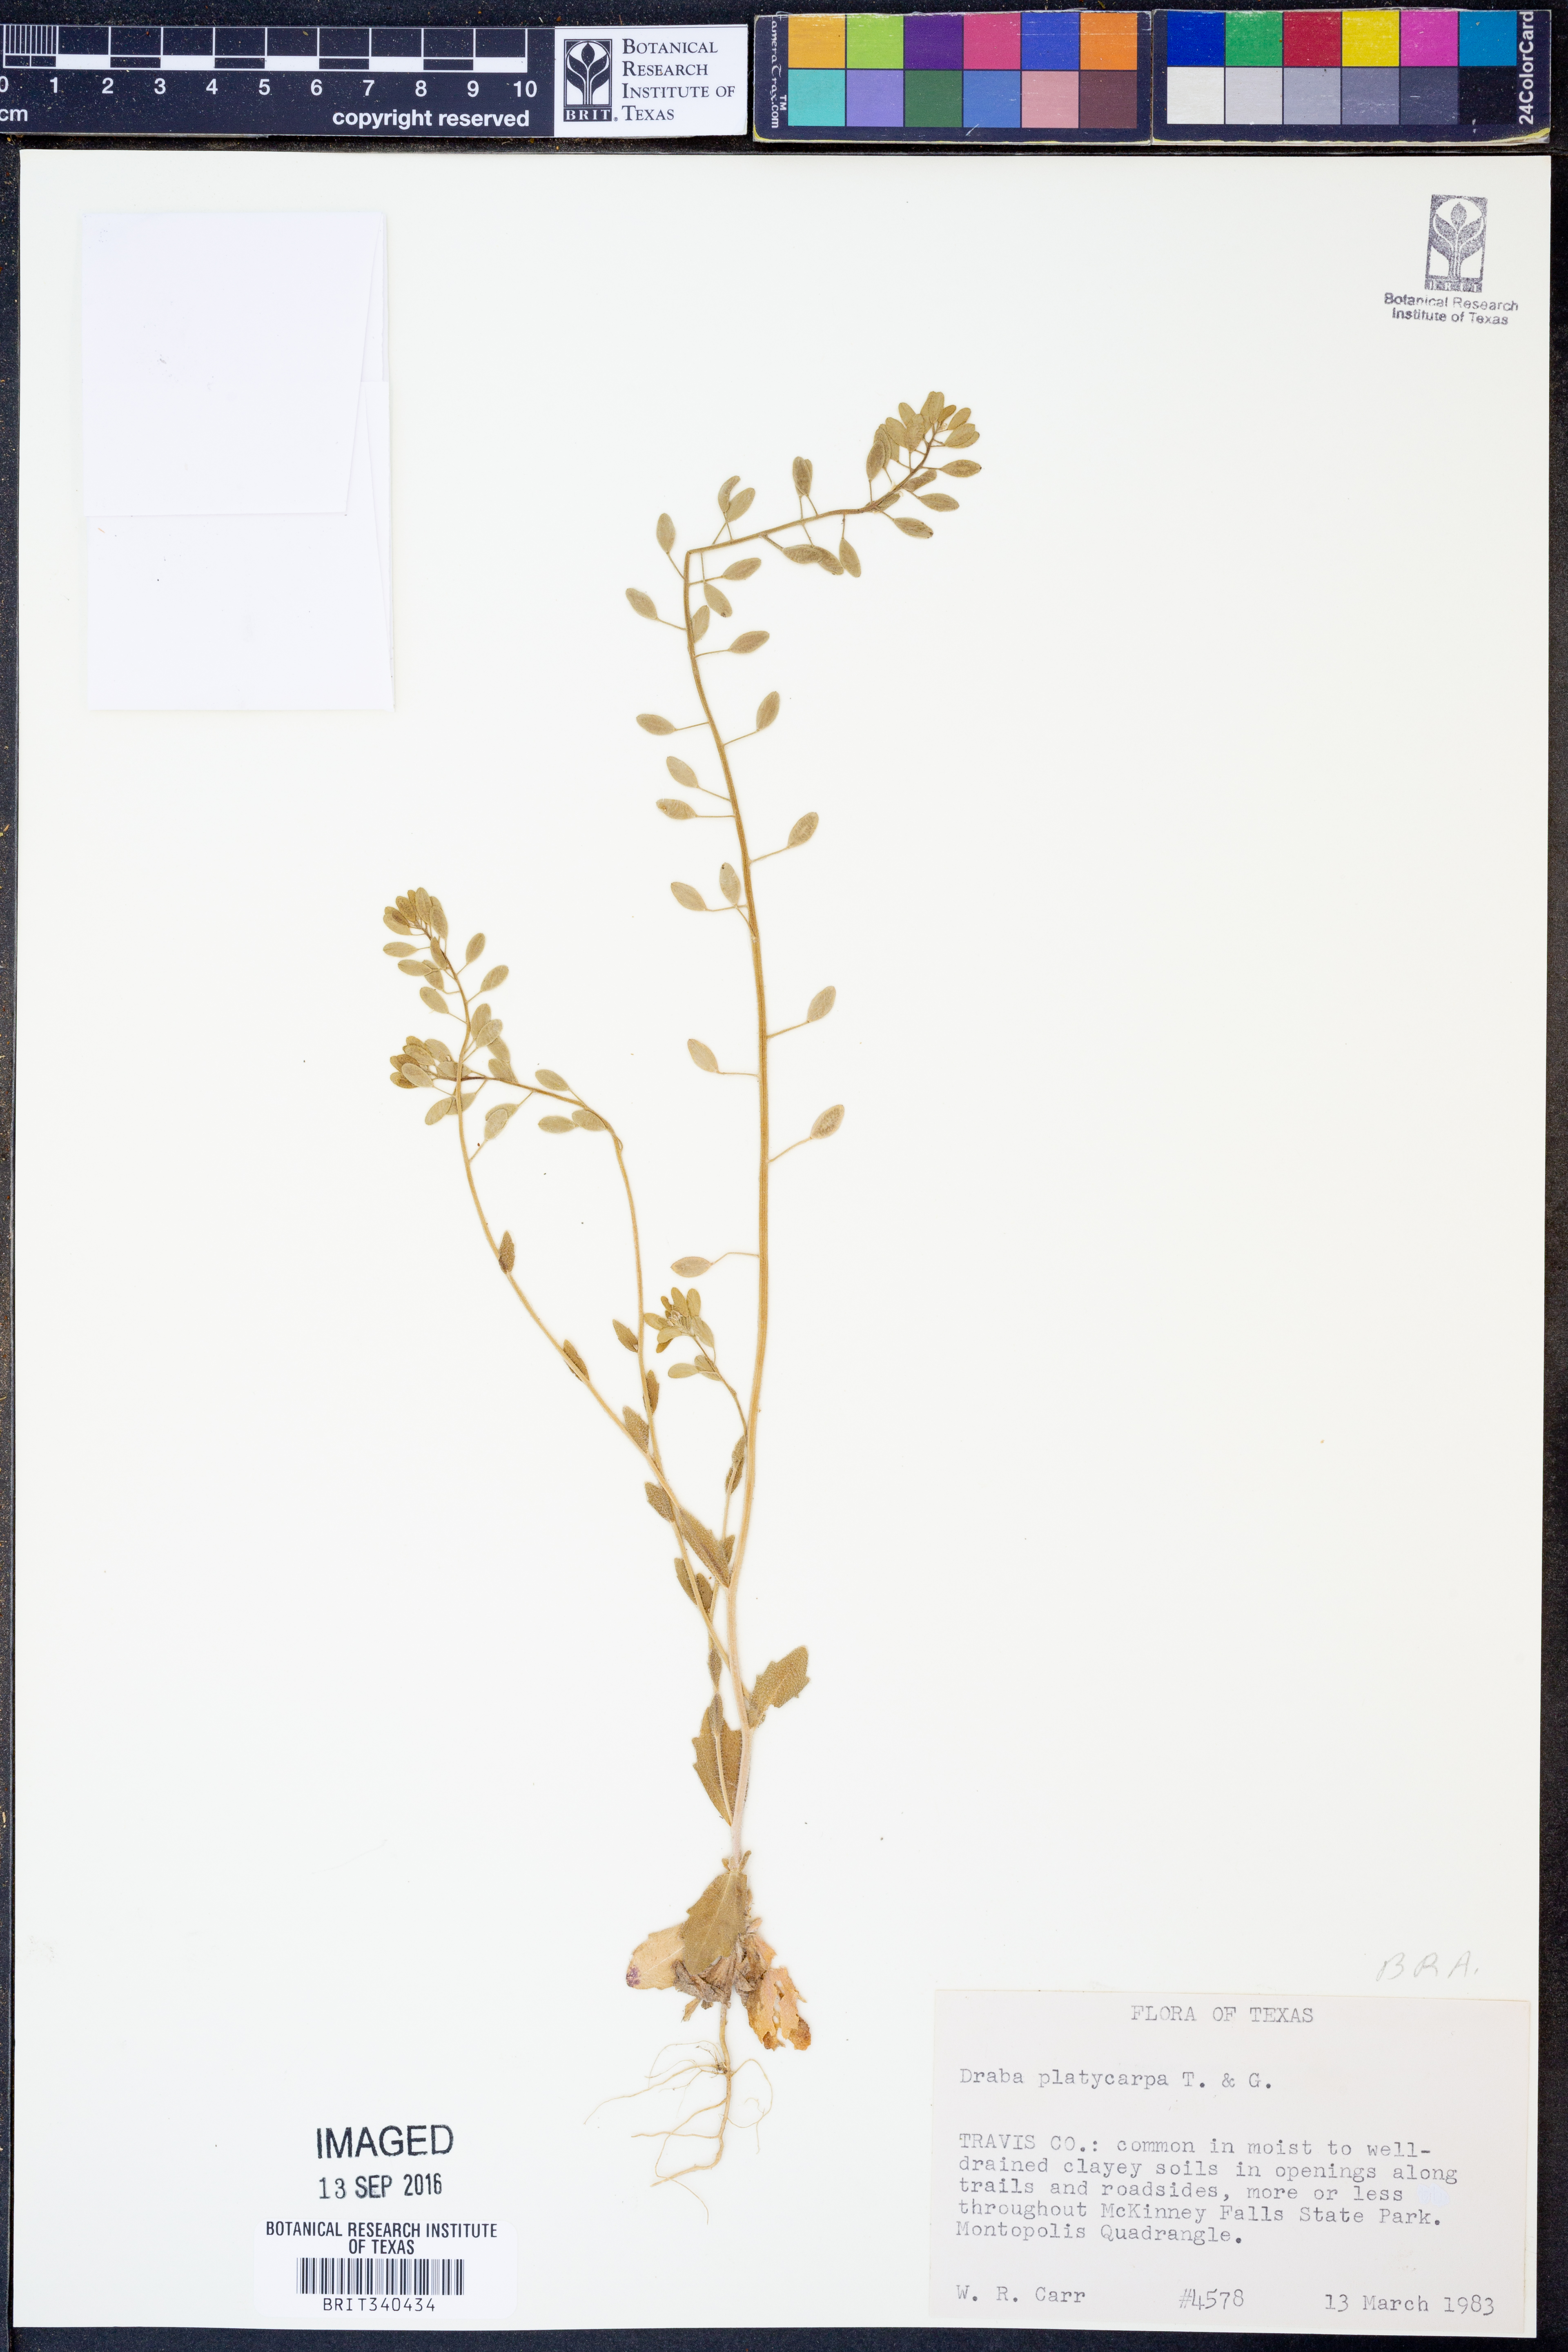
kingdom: Plantae
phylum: Tracheophyta
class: Magnoliopsida
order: Brassicales
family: Brassicaceae
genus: Tomostima
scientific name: Tomostima platycarpa
